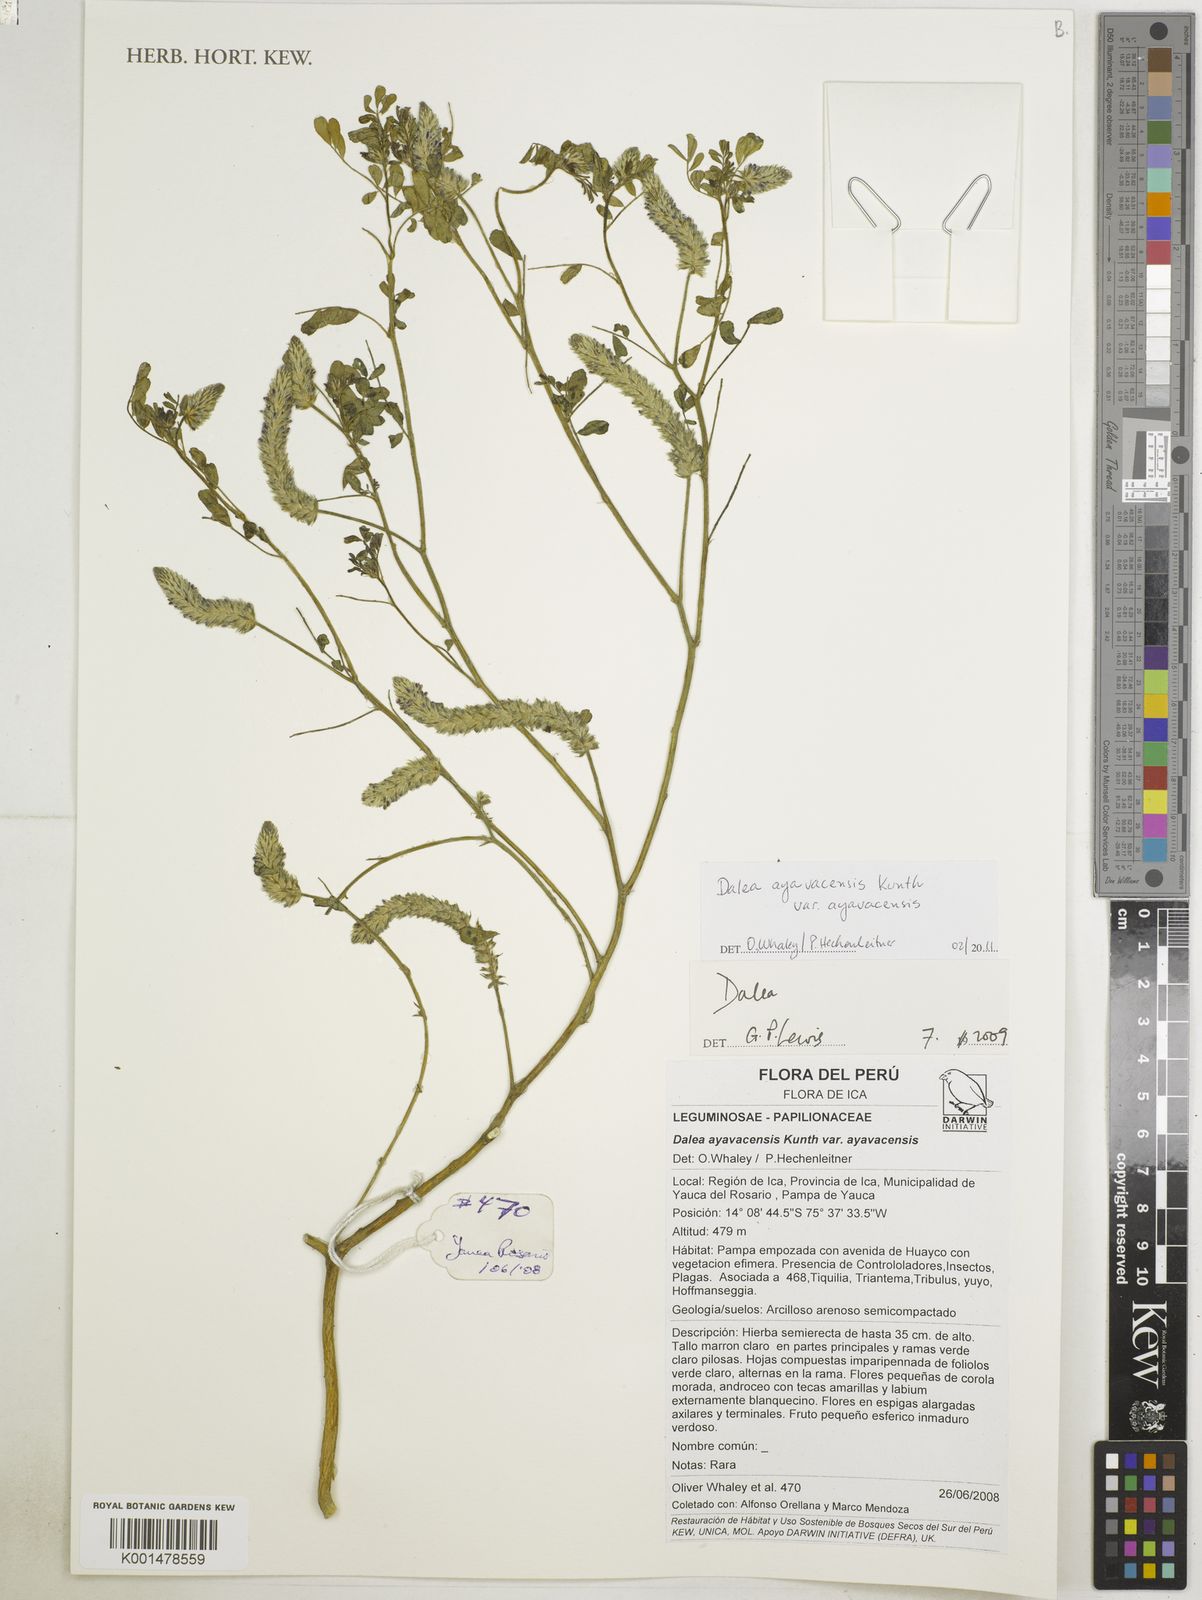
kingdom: Plantae
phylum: Tracheophyta
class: Magnoliopsida
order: Fabales
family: Fabaceae
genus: Dalea
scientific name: Dalea ayavacensis
